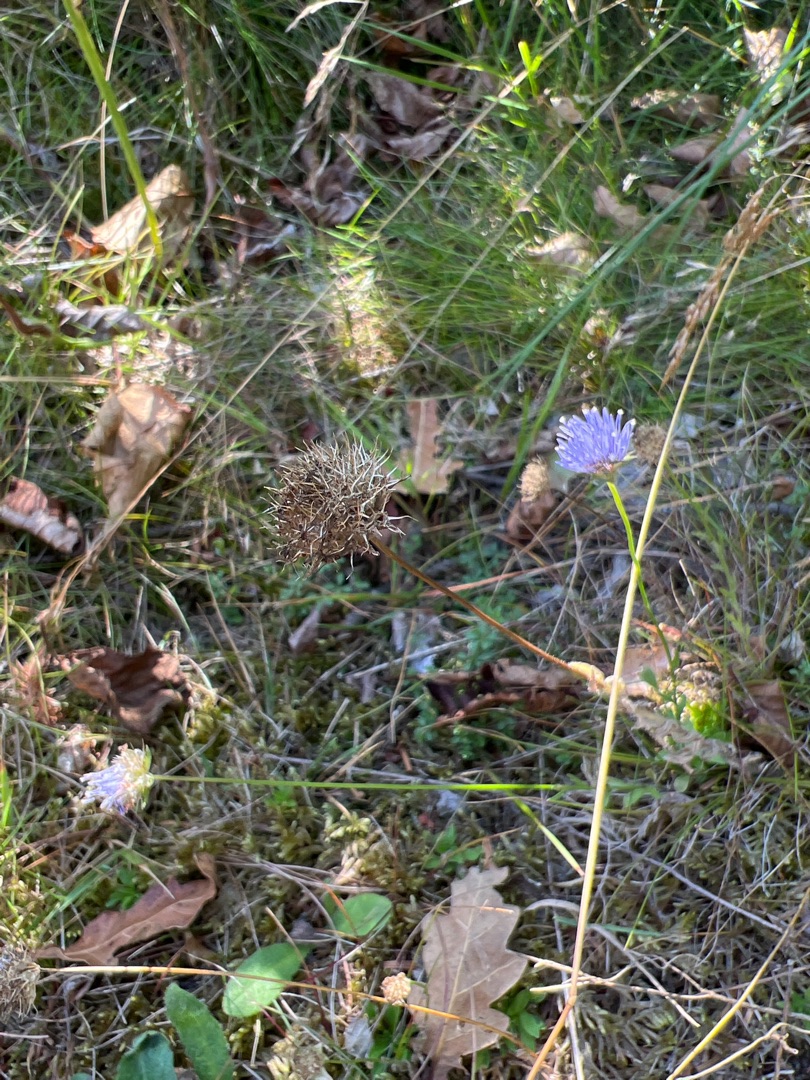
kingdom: Plantae
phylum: Tracheophyta
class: Magnoliopsida
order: Asterales
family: Campanulaceae
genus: Jasione
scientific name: Jasione montana
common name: Blåmunke
